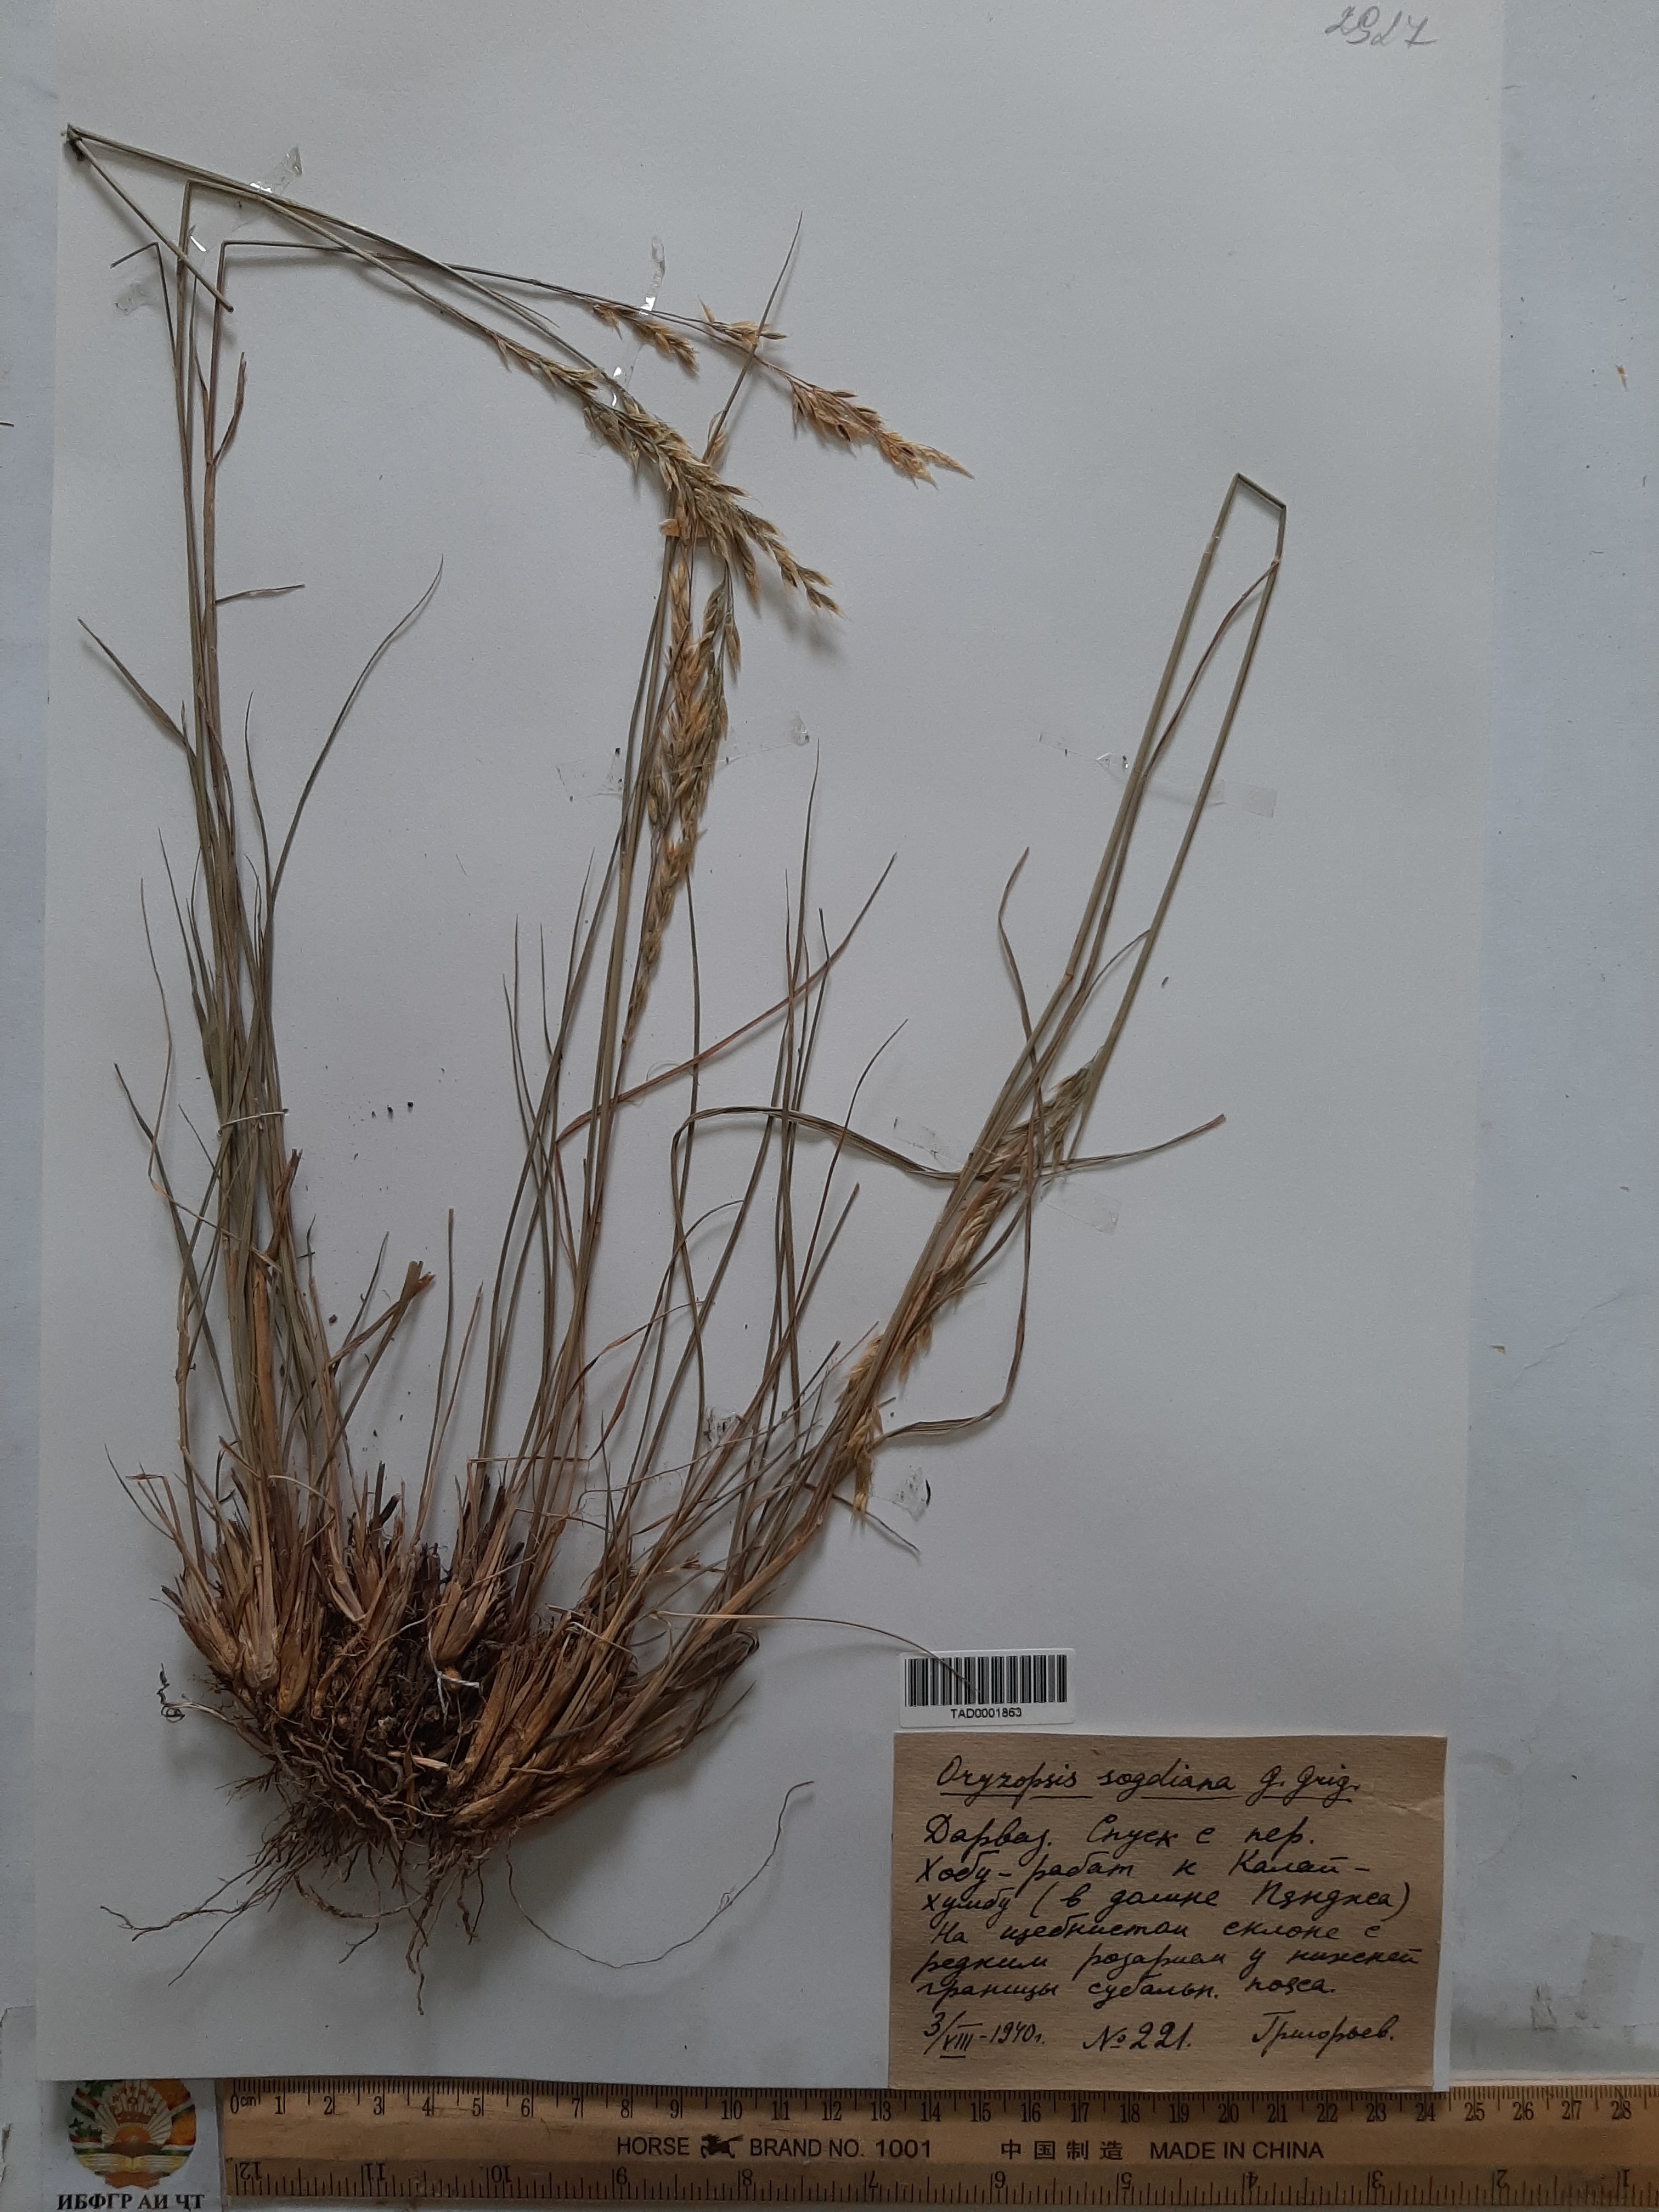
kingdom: Plantae
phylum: Tracheophyta
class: Liliopsida
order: Poales
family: Poaceae
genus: Piptatherum
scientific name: Piptatherum sogdianum
